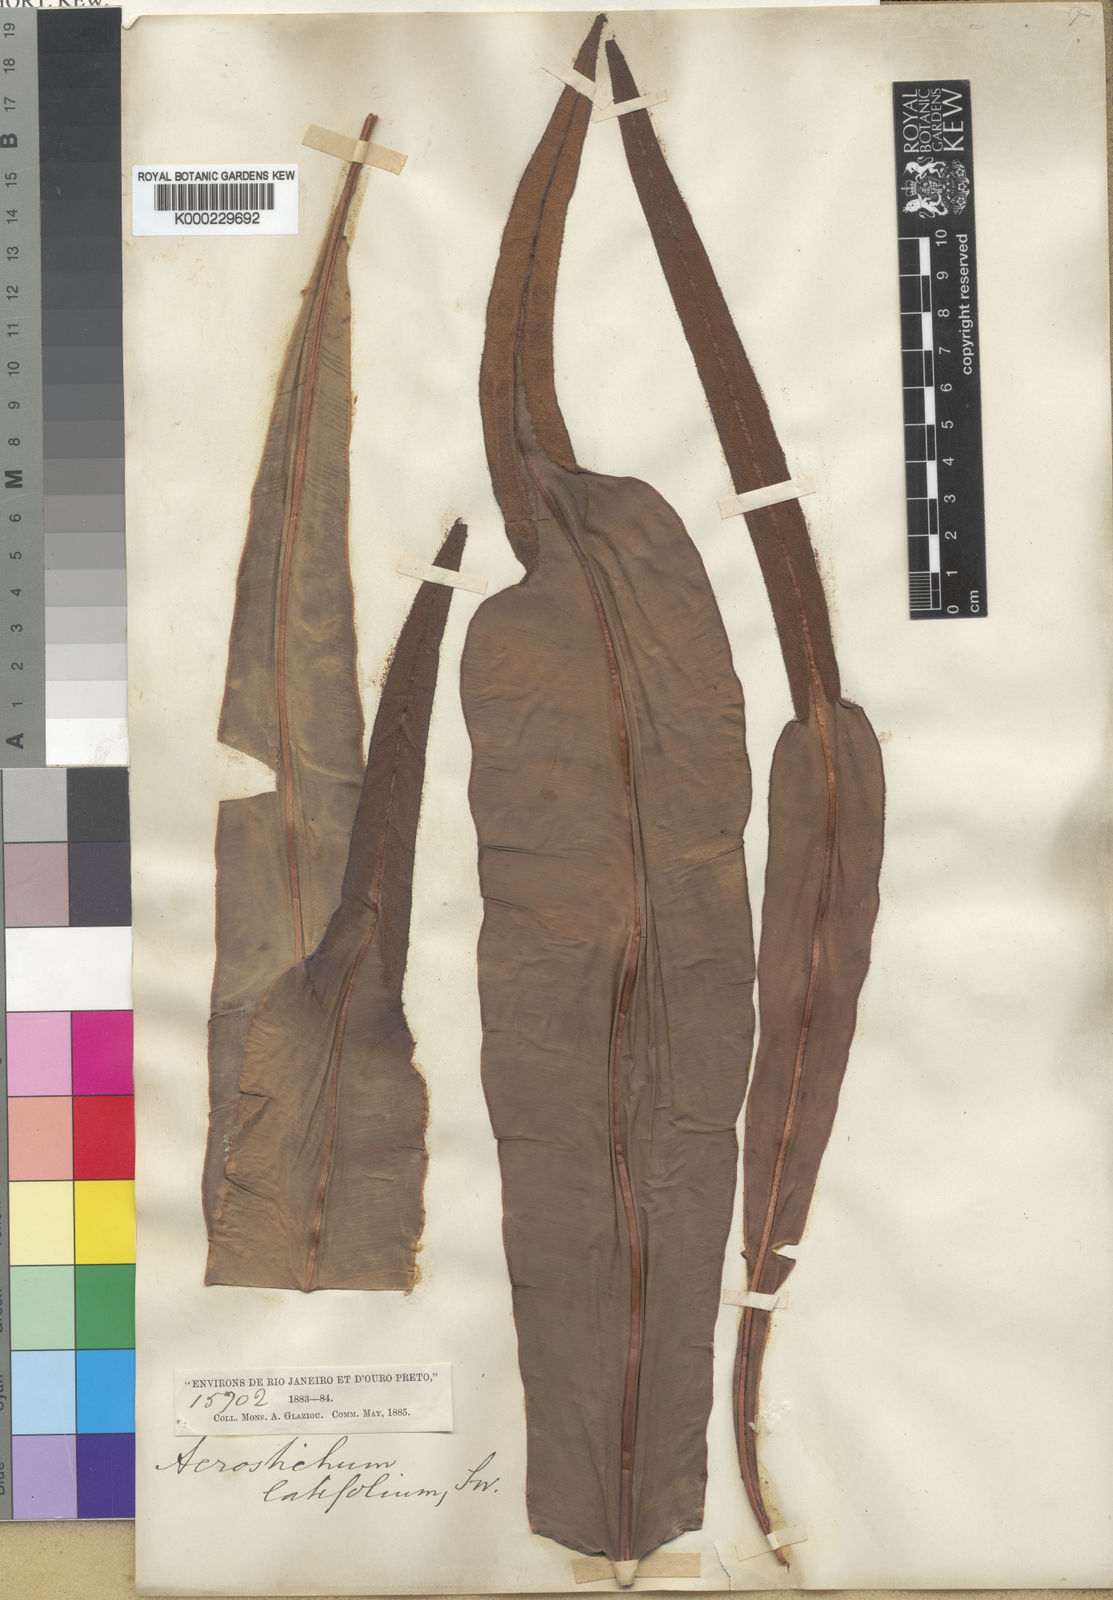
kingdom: Plantae
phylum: Tracheophyta
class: Polypodiopsida
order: Polypodiales
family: Dryopteridaceae
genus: Elaphoglossum
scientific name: Elaphoglossum latifolium
